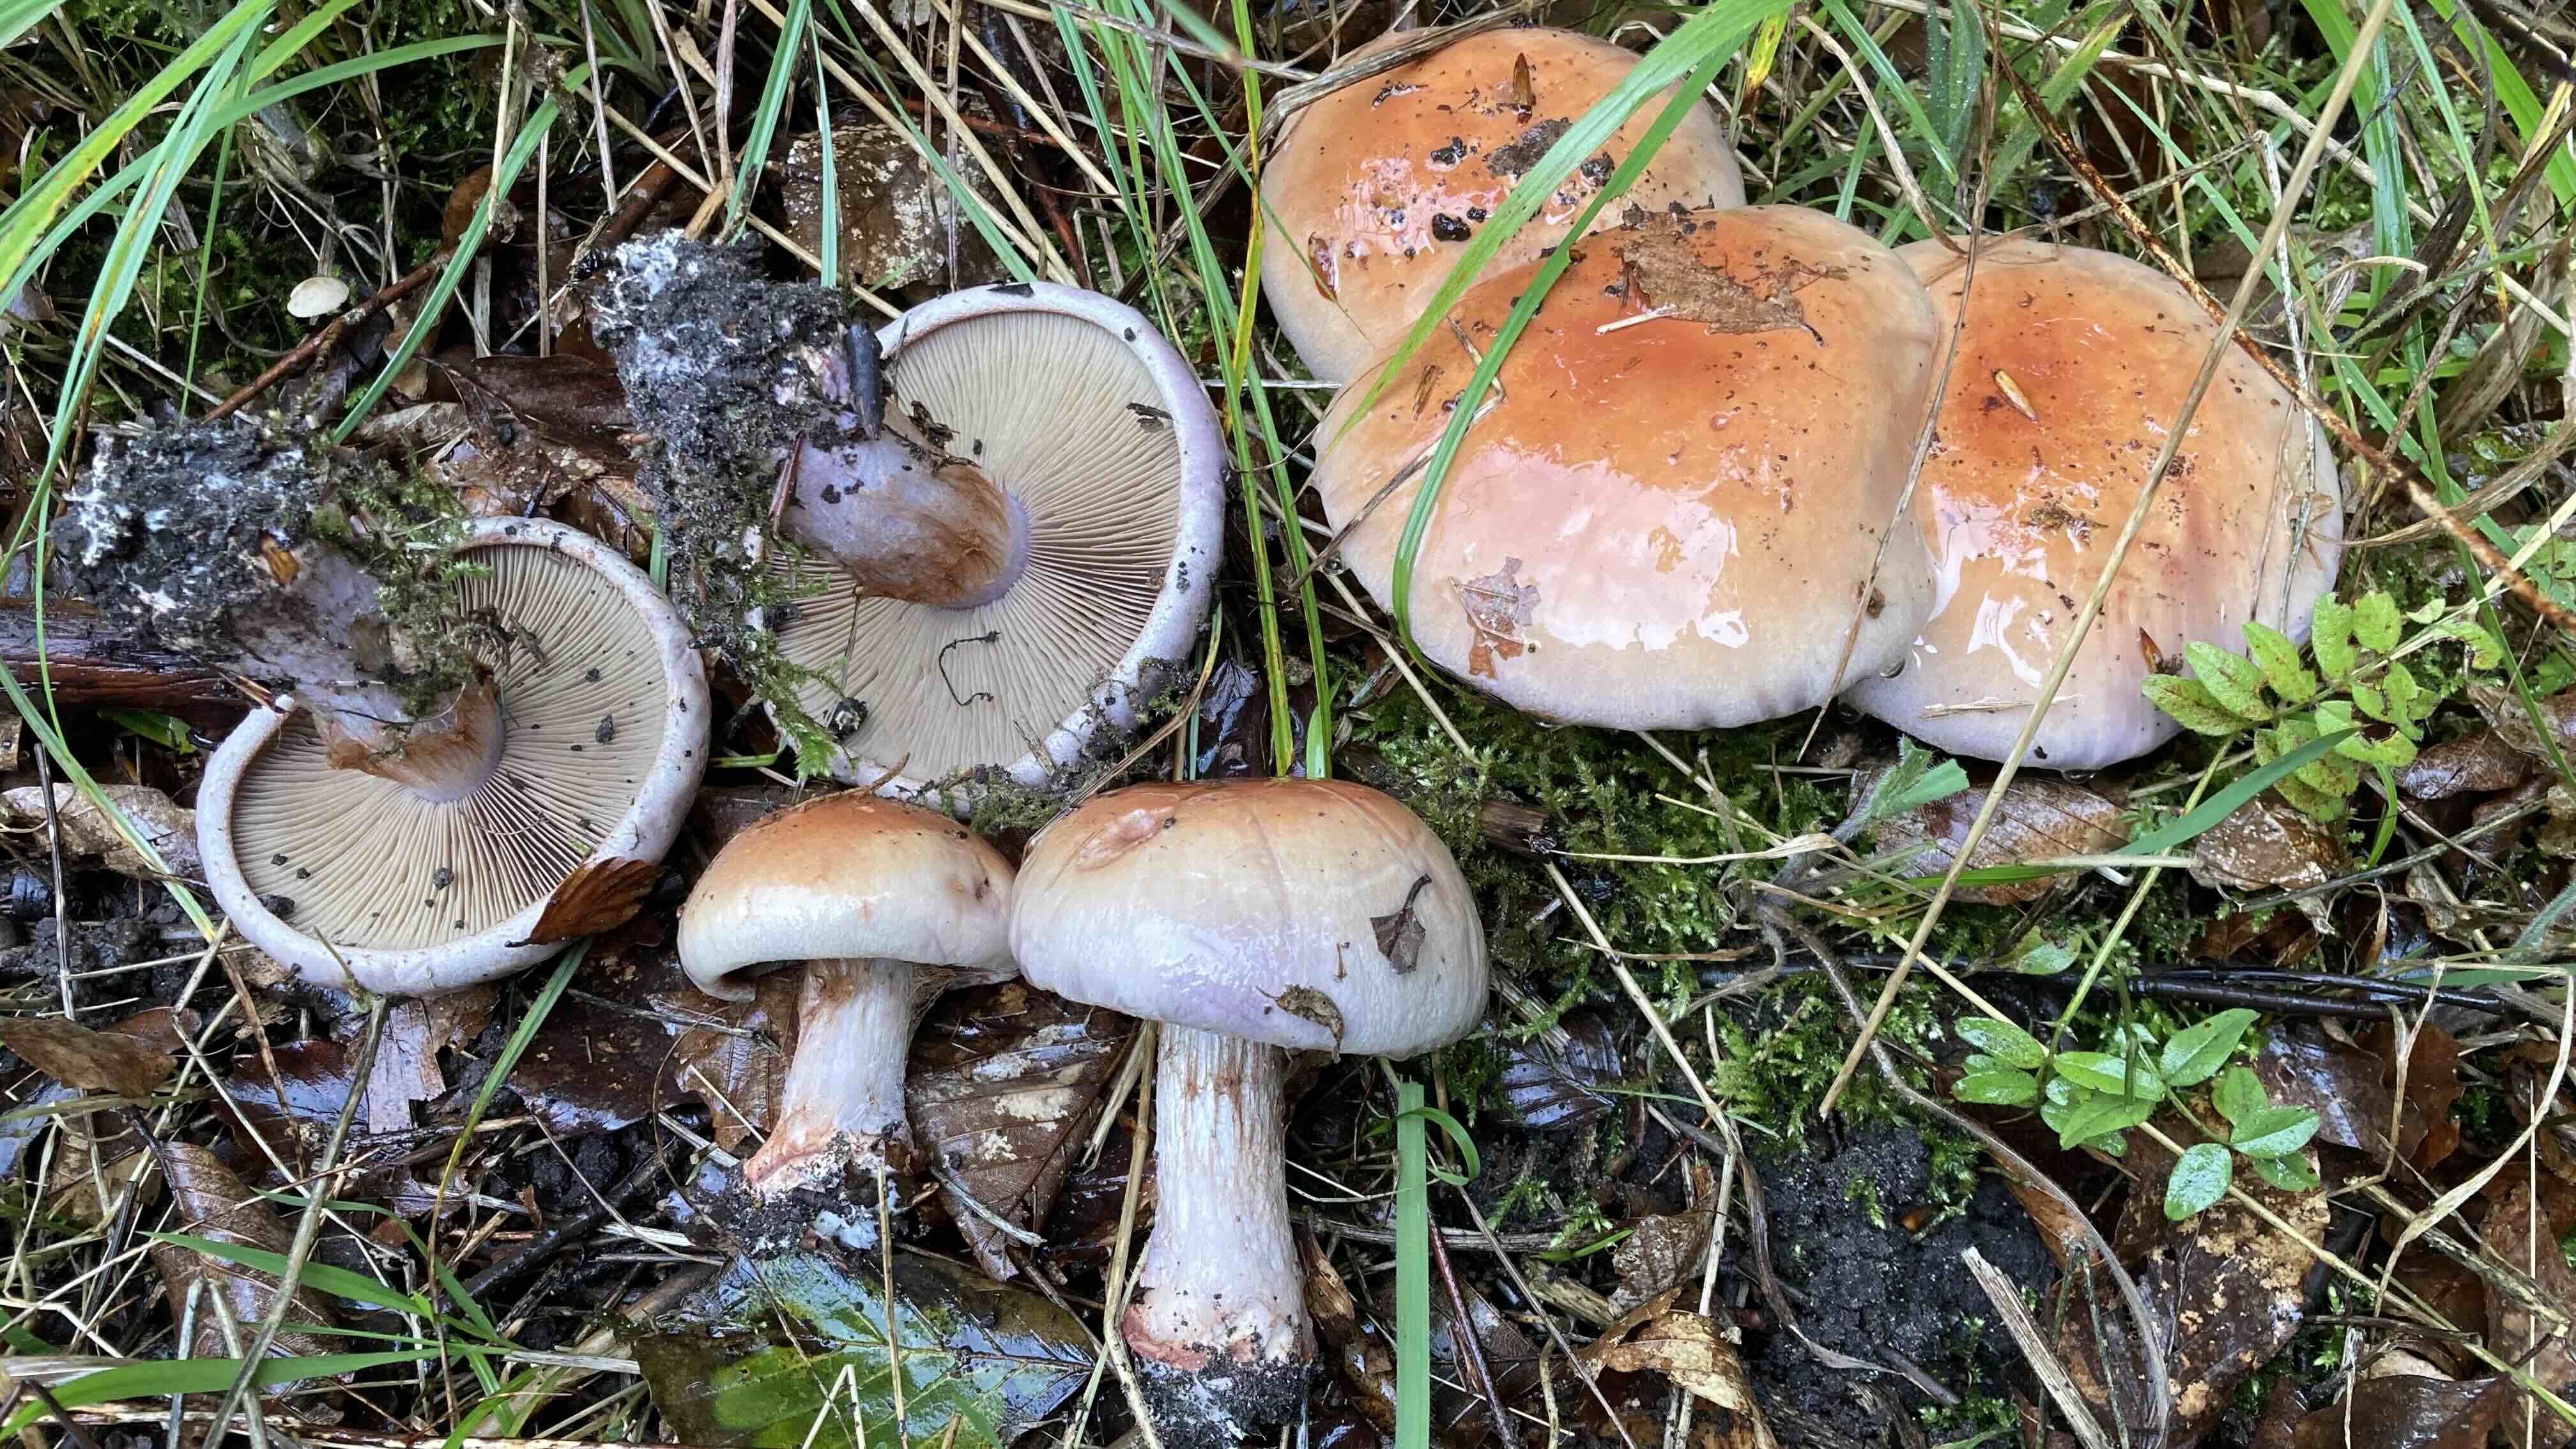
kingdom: Fungi
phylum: Basidiomycota
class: Agaricomycetes
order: Agaricales
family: Cortinariaceae
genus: Calonarius
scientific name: Calonarius rufo-olivaceus
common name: firefarvet slørhat
